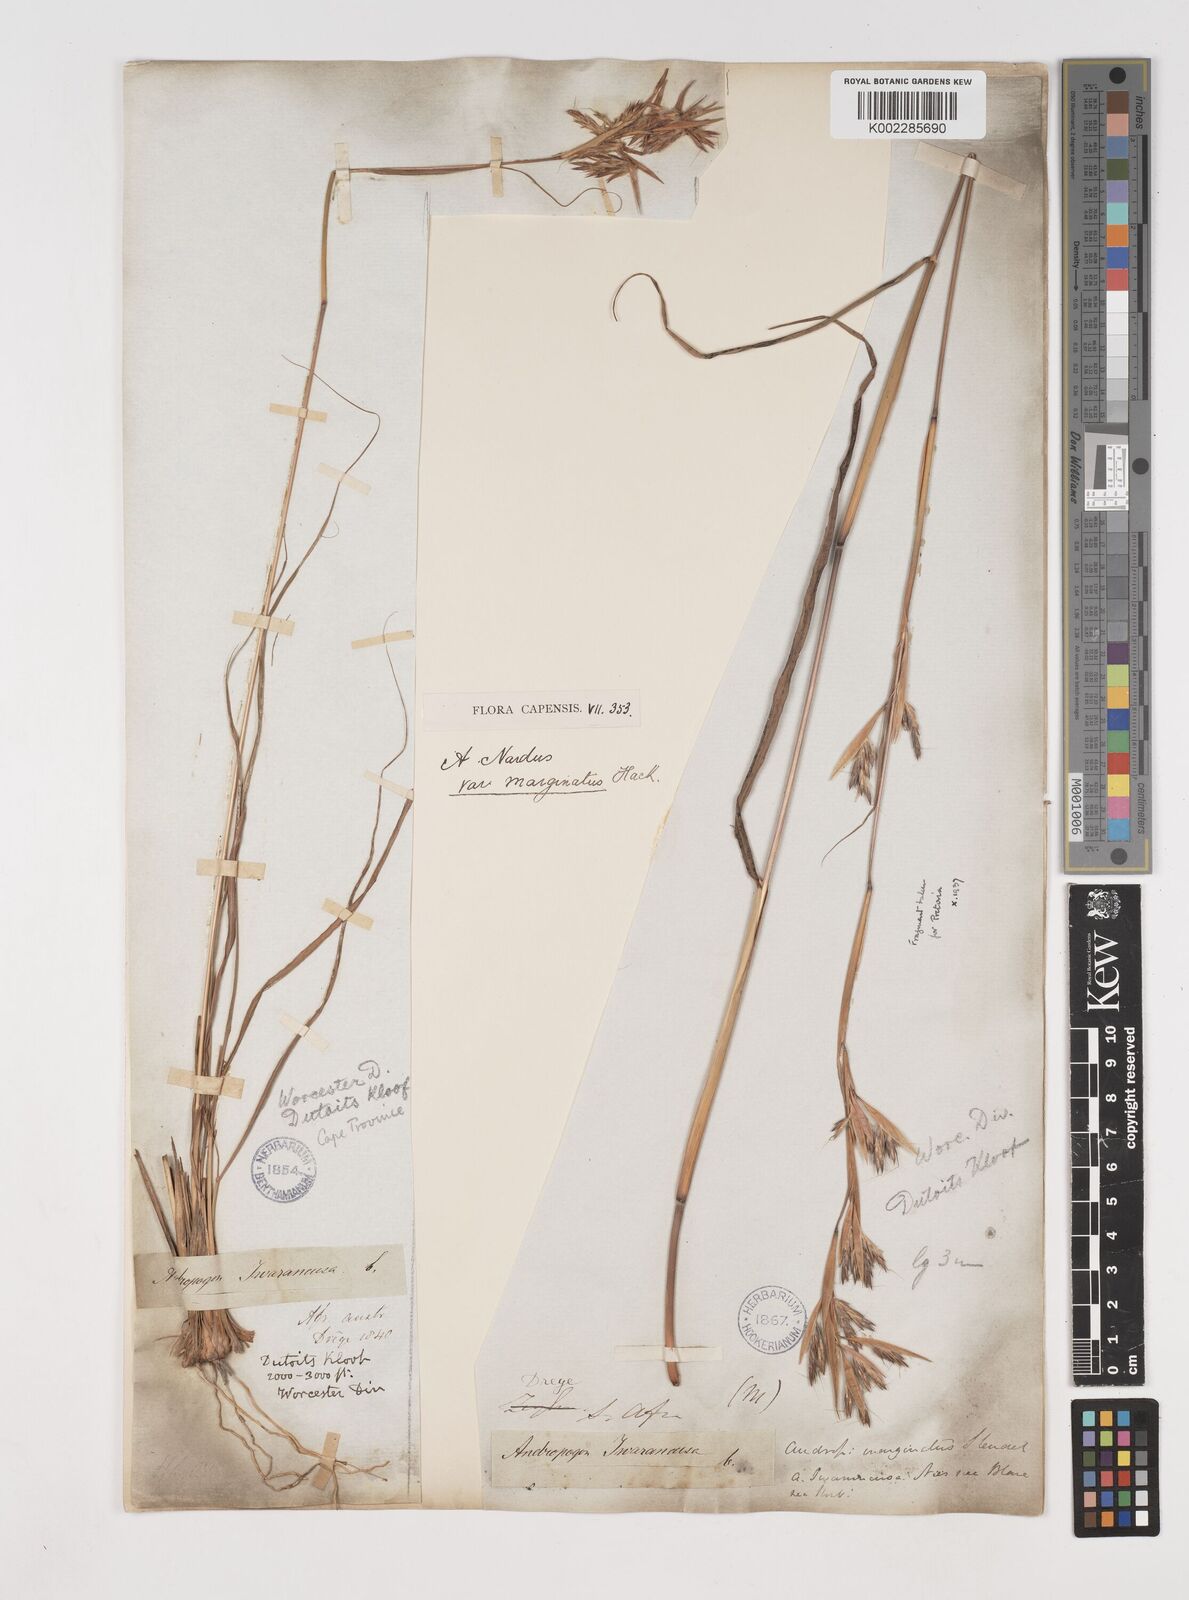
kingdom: Plantae
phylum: Tracheophyta
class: Liliopsida
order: Poales
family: Poaceae
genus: Cymbopogon
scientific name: Cymbopogon marginatus
